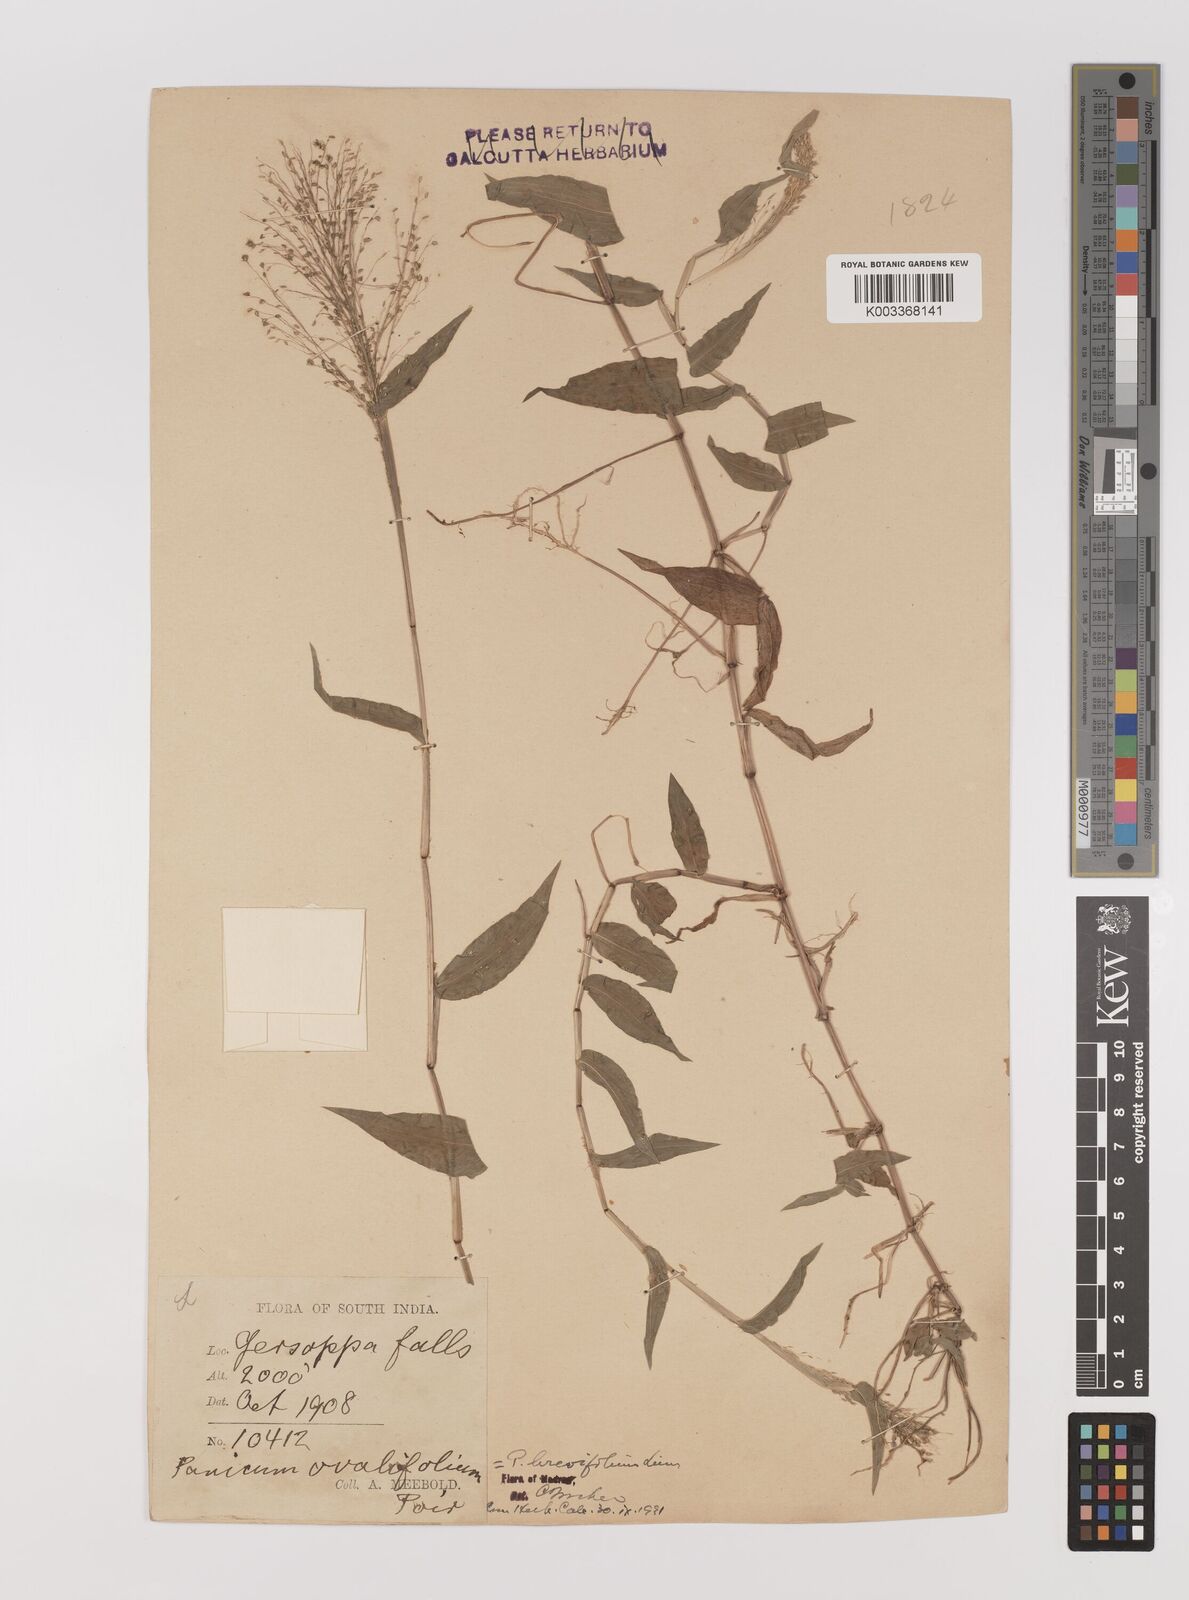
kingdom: Plantae
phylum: Tracheophyta
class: Liliopsida
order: Poales
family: Poaceae
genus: Panicum
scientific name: Panicum brevifolium
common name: Shortleaf panic grass
